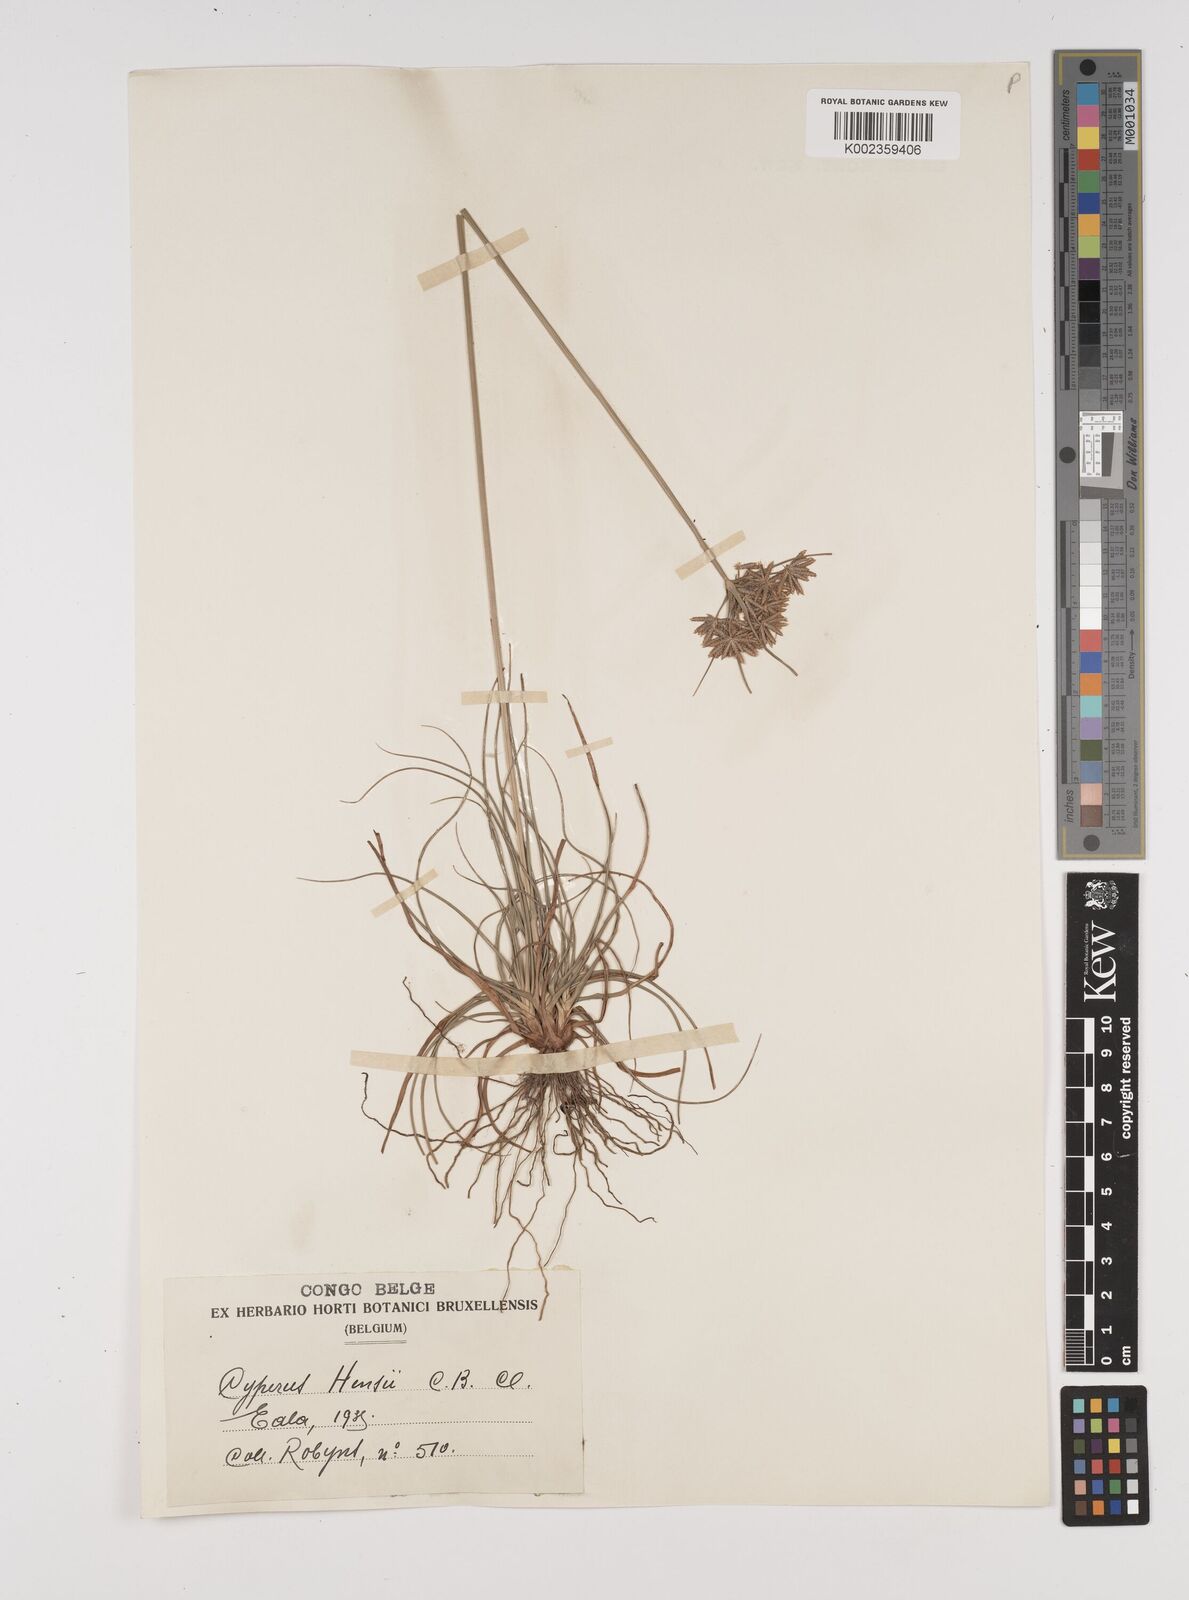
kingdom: Plantae
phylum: Tracheophyta
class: Liliopsida
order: Poales
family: Cyperaceae
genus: Cyperus
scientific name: Cyperus hensii
